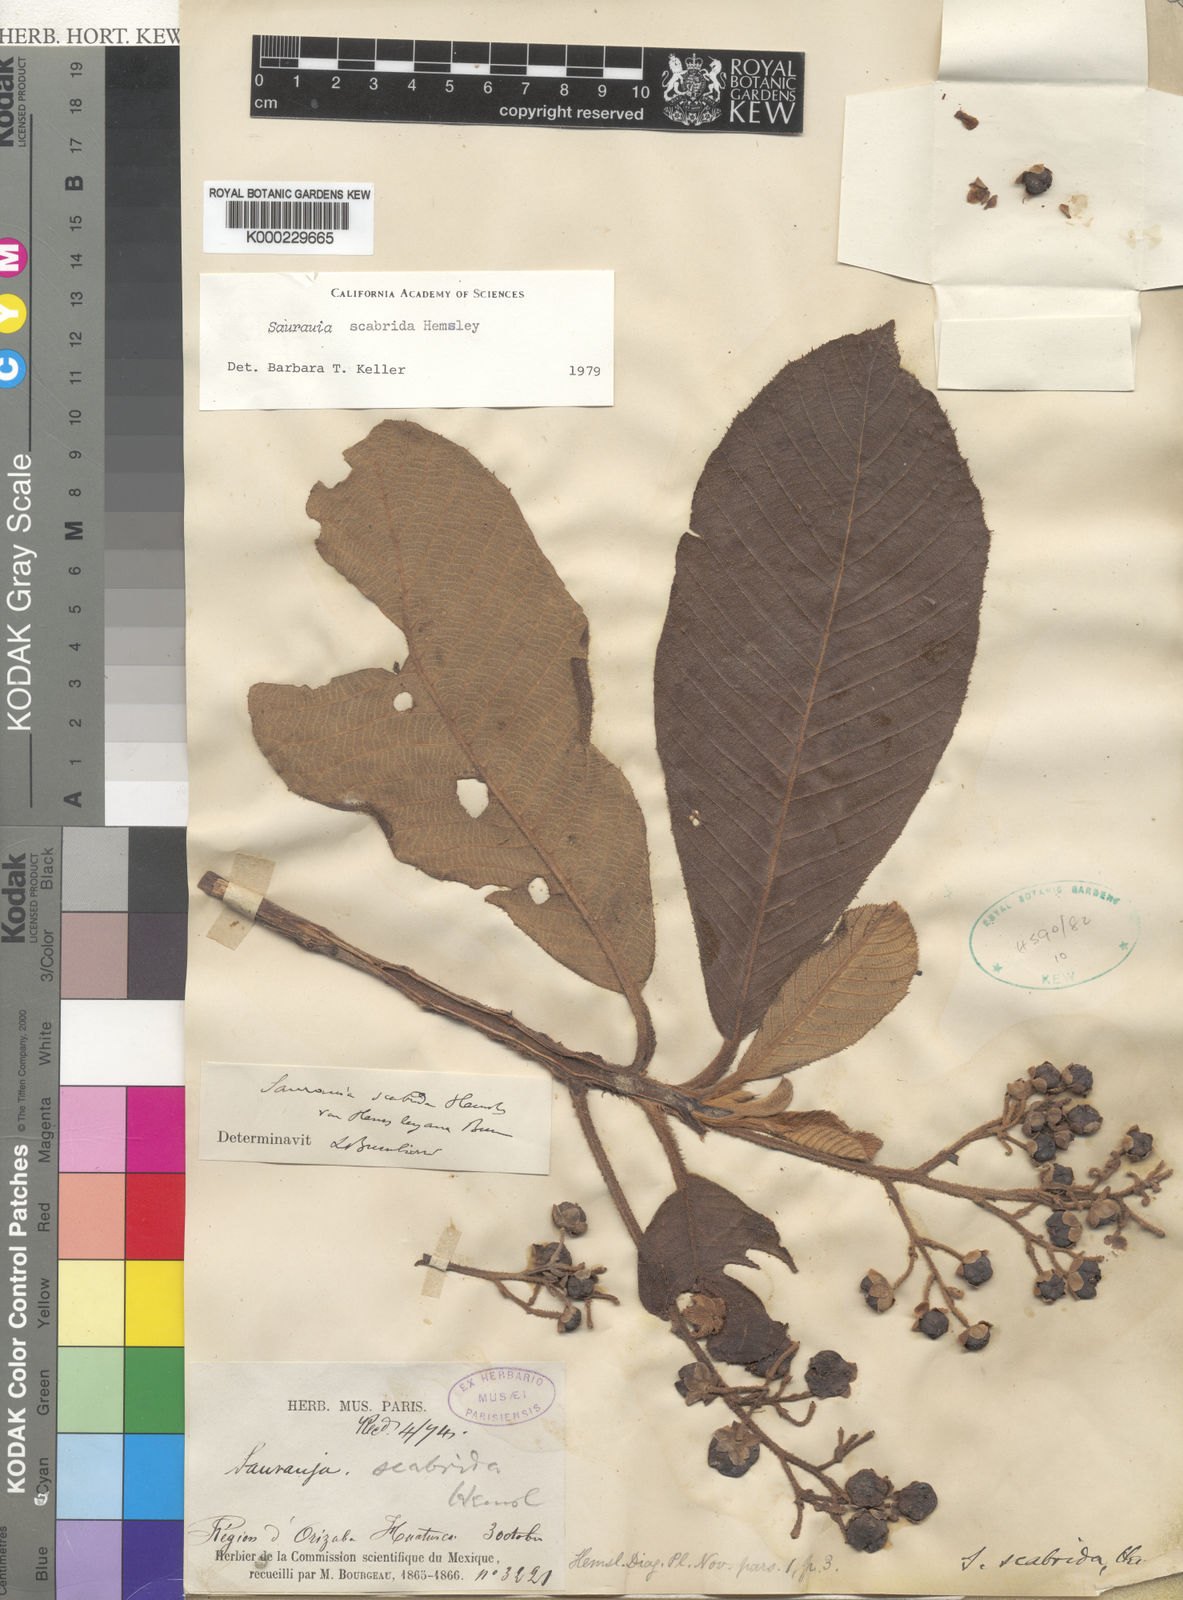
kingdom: Plantae
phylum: Tracheophyta
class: Magnoliopsida
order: Ericales
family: Actinidiaceae
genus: Saurauia
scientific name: Saurauia scabrida
